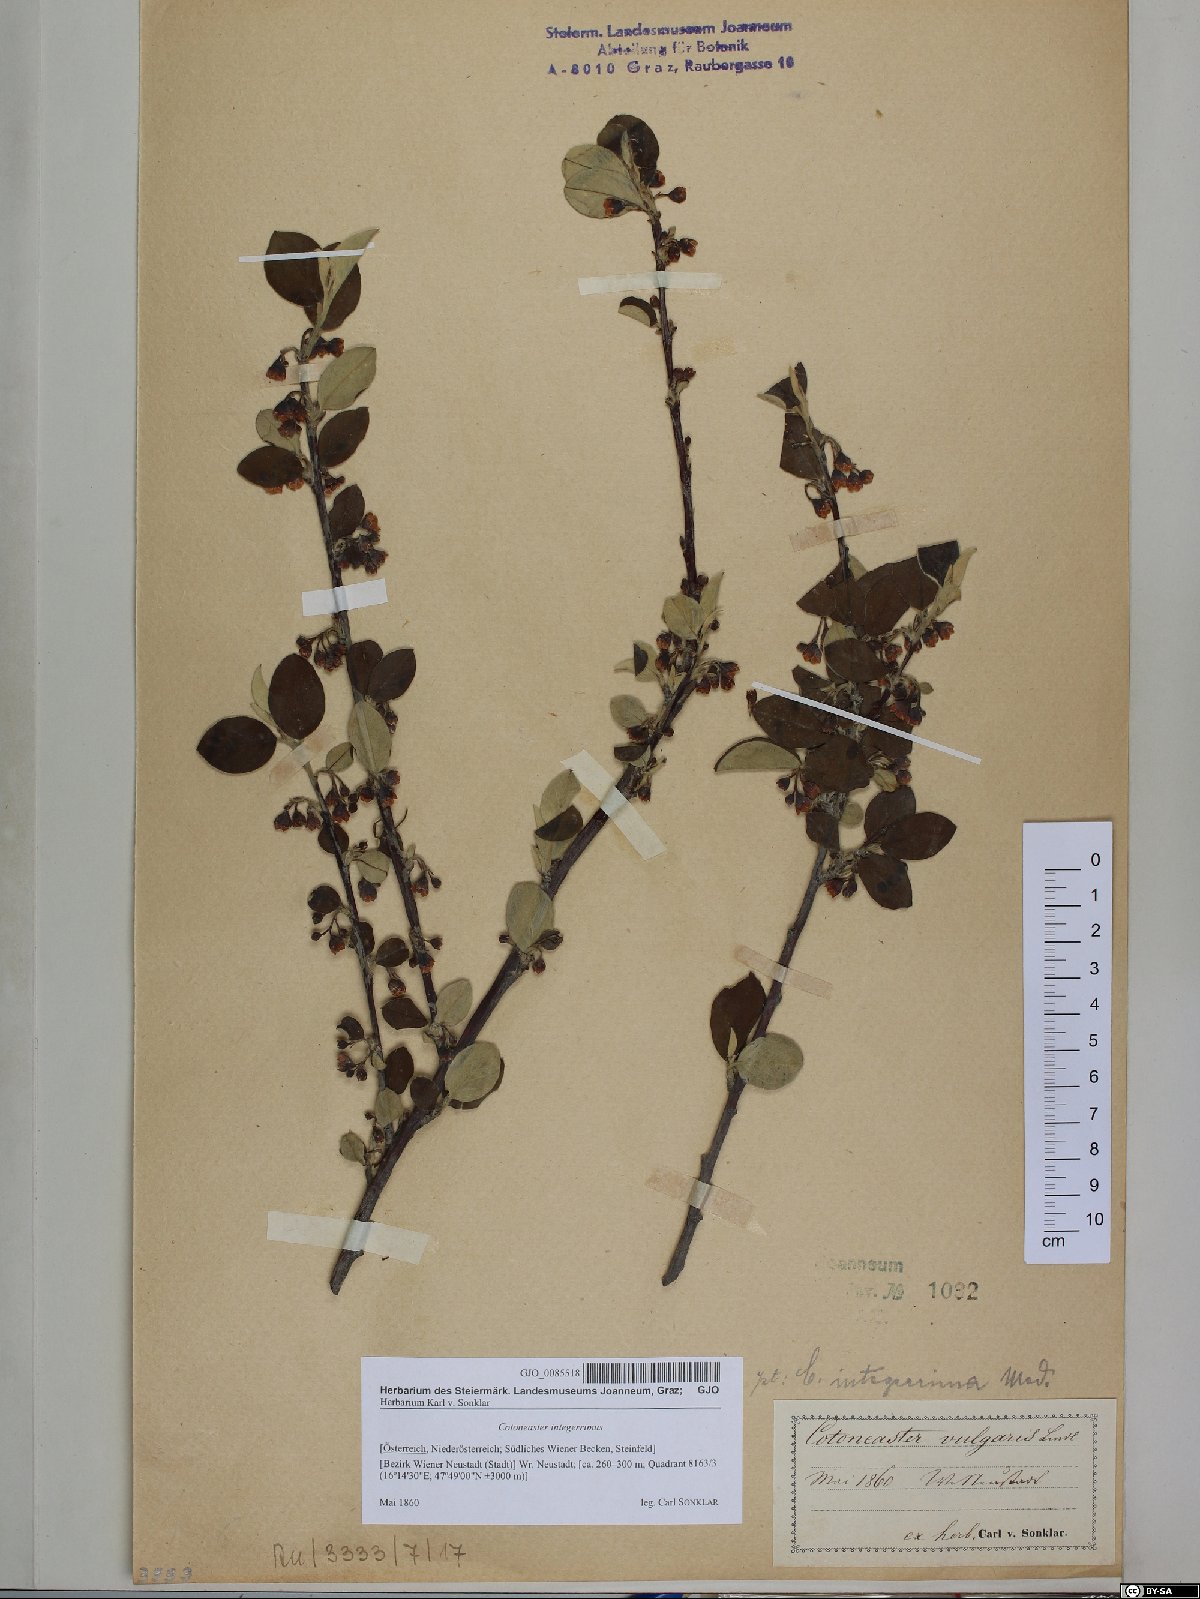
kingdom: Plantae
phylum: Tracheophyta
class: Magnoliopsida
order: Rosales
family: Rosaceae
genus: Cotoneaster
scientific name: Cotoneaster integerrimus
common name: Wild cotoneaster
